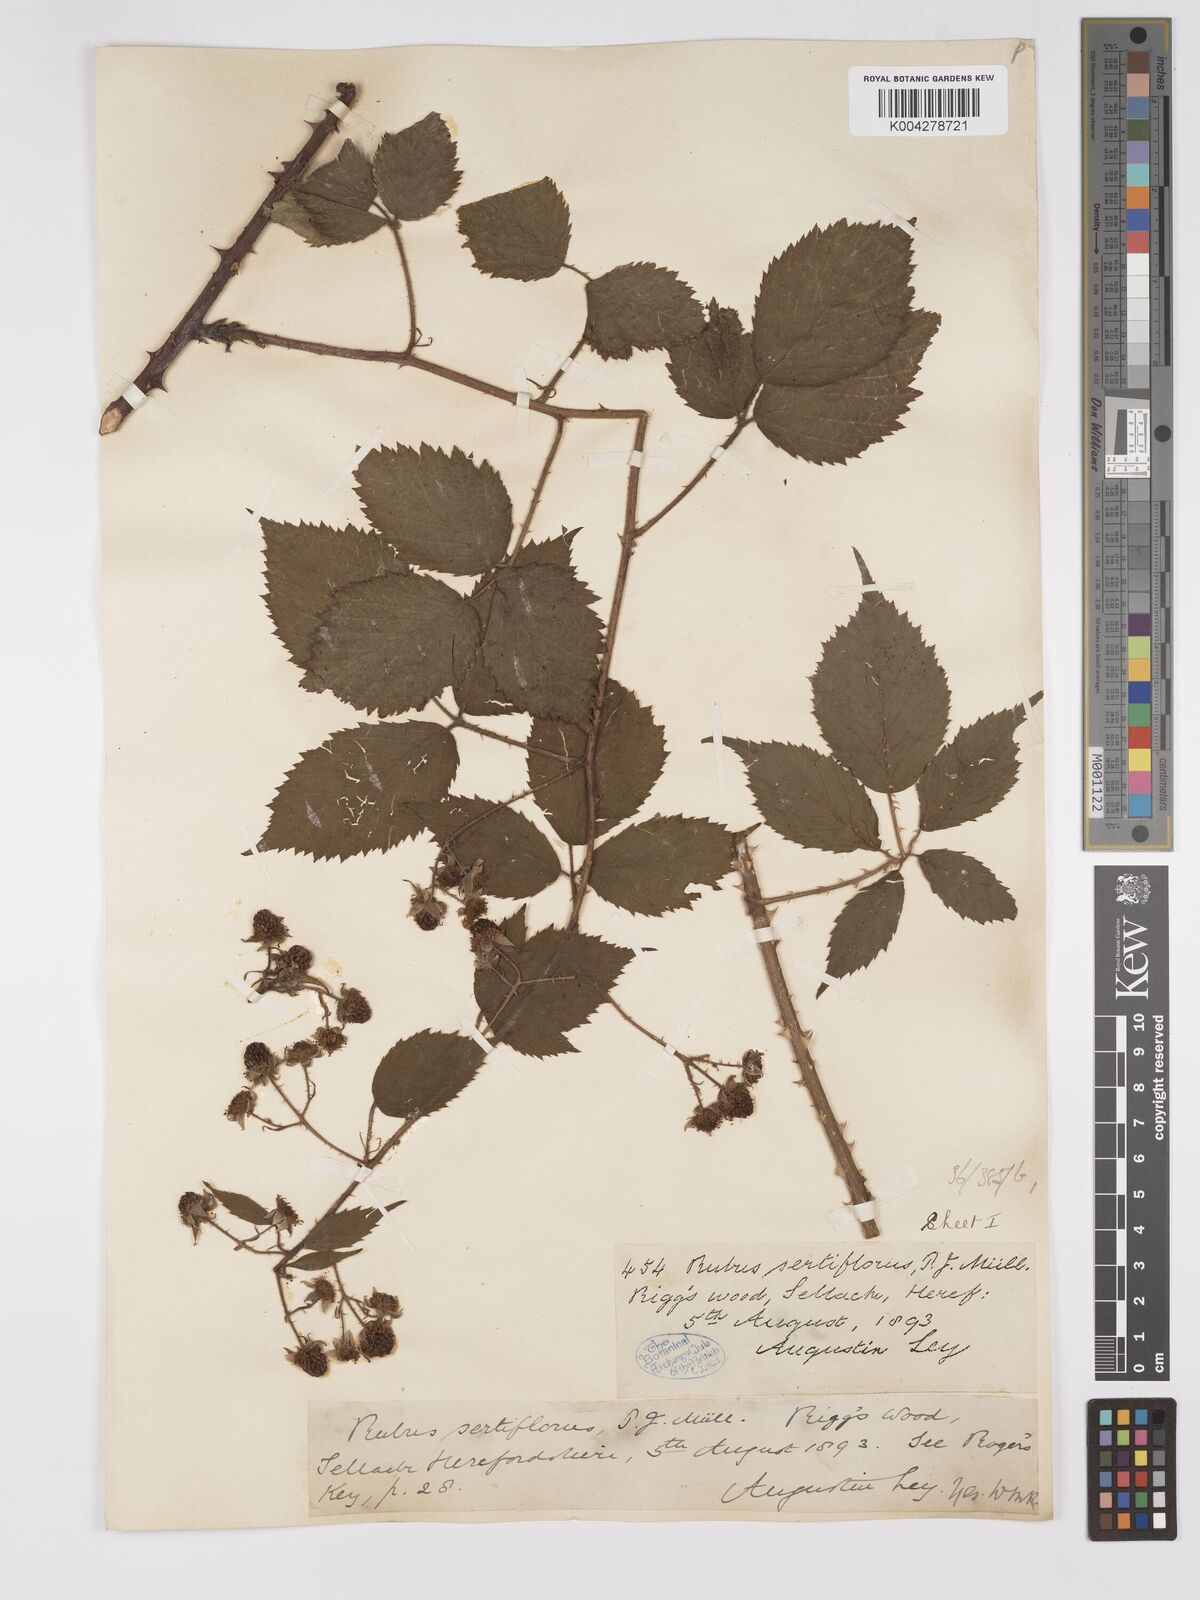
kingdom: Plantae
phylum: Tracheophyta
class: Magnoliopsida
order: Rosales
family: Rosaceae
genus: Rubus
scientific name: Rubus
